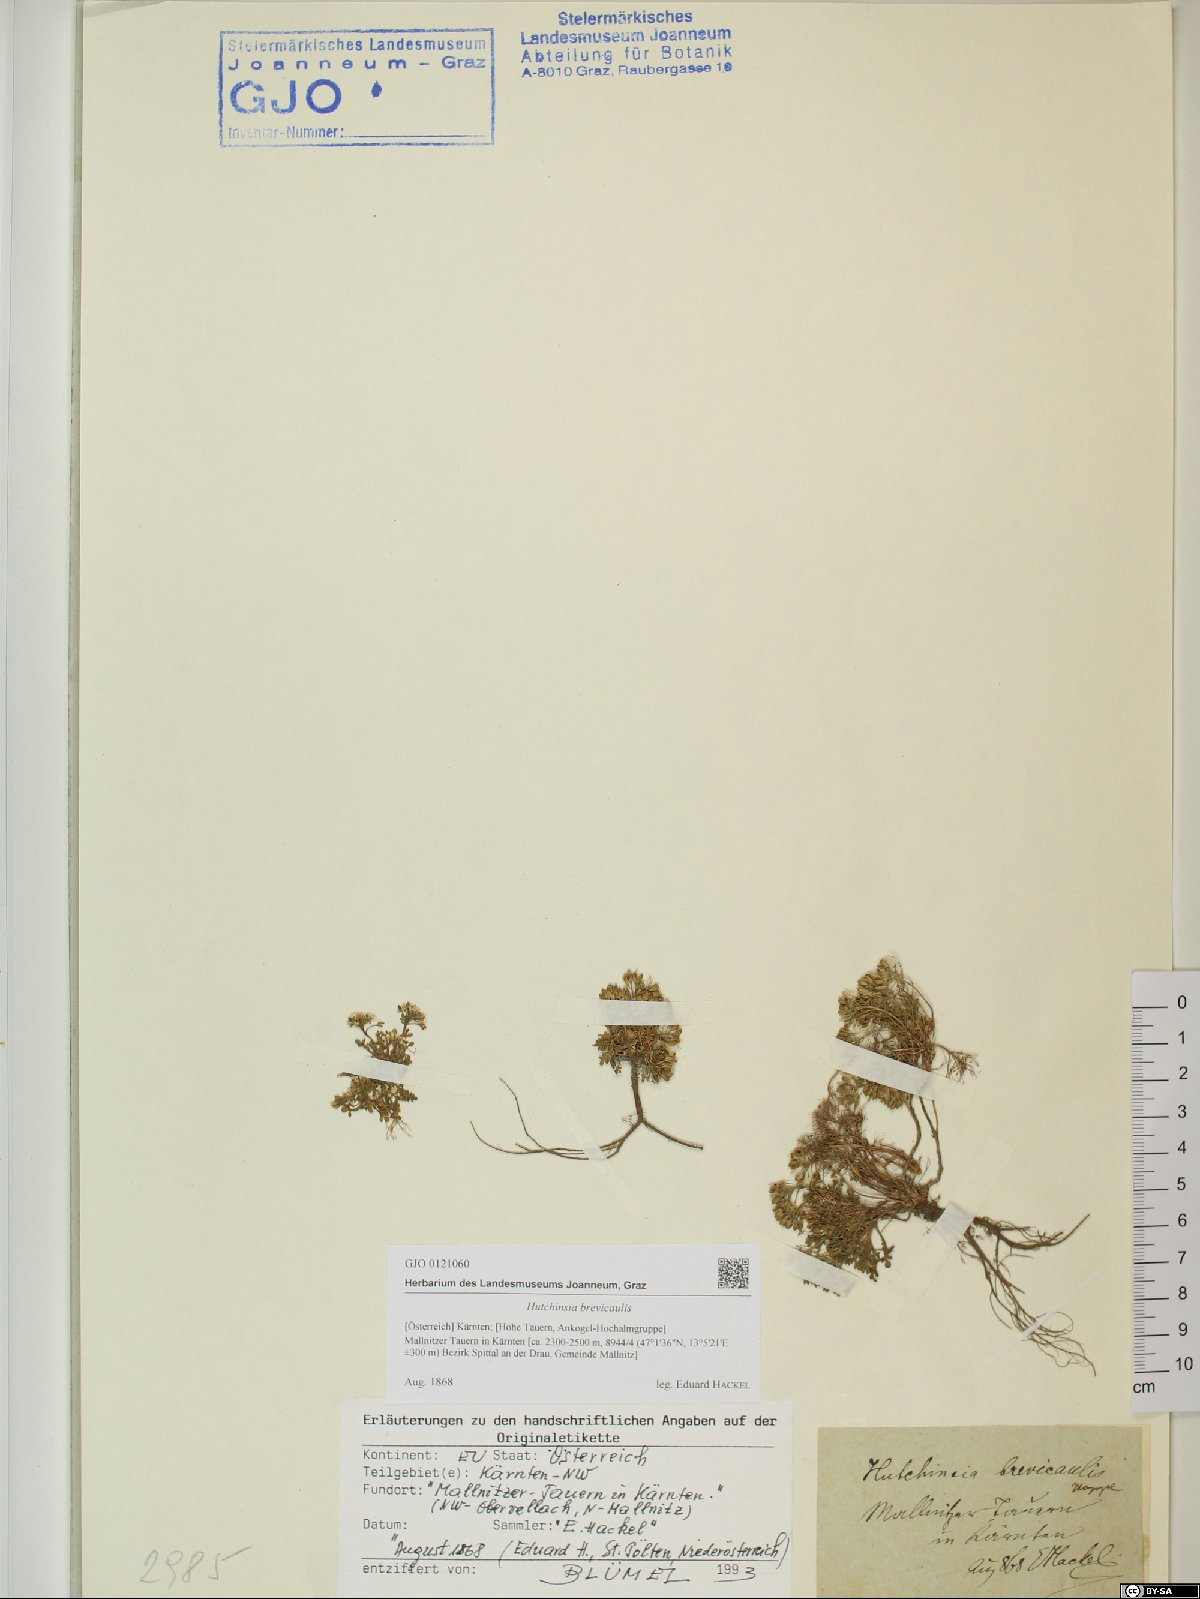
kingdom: Plantae
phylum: Tracheophyta
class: Magnoliopsida
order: Brassicales
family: Brassicaceae
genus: Hornungia
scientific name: Hornungia alpina
